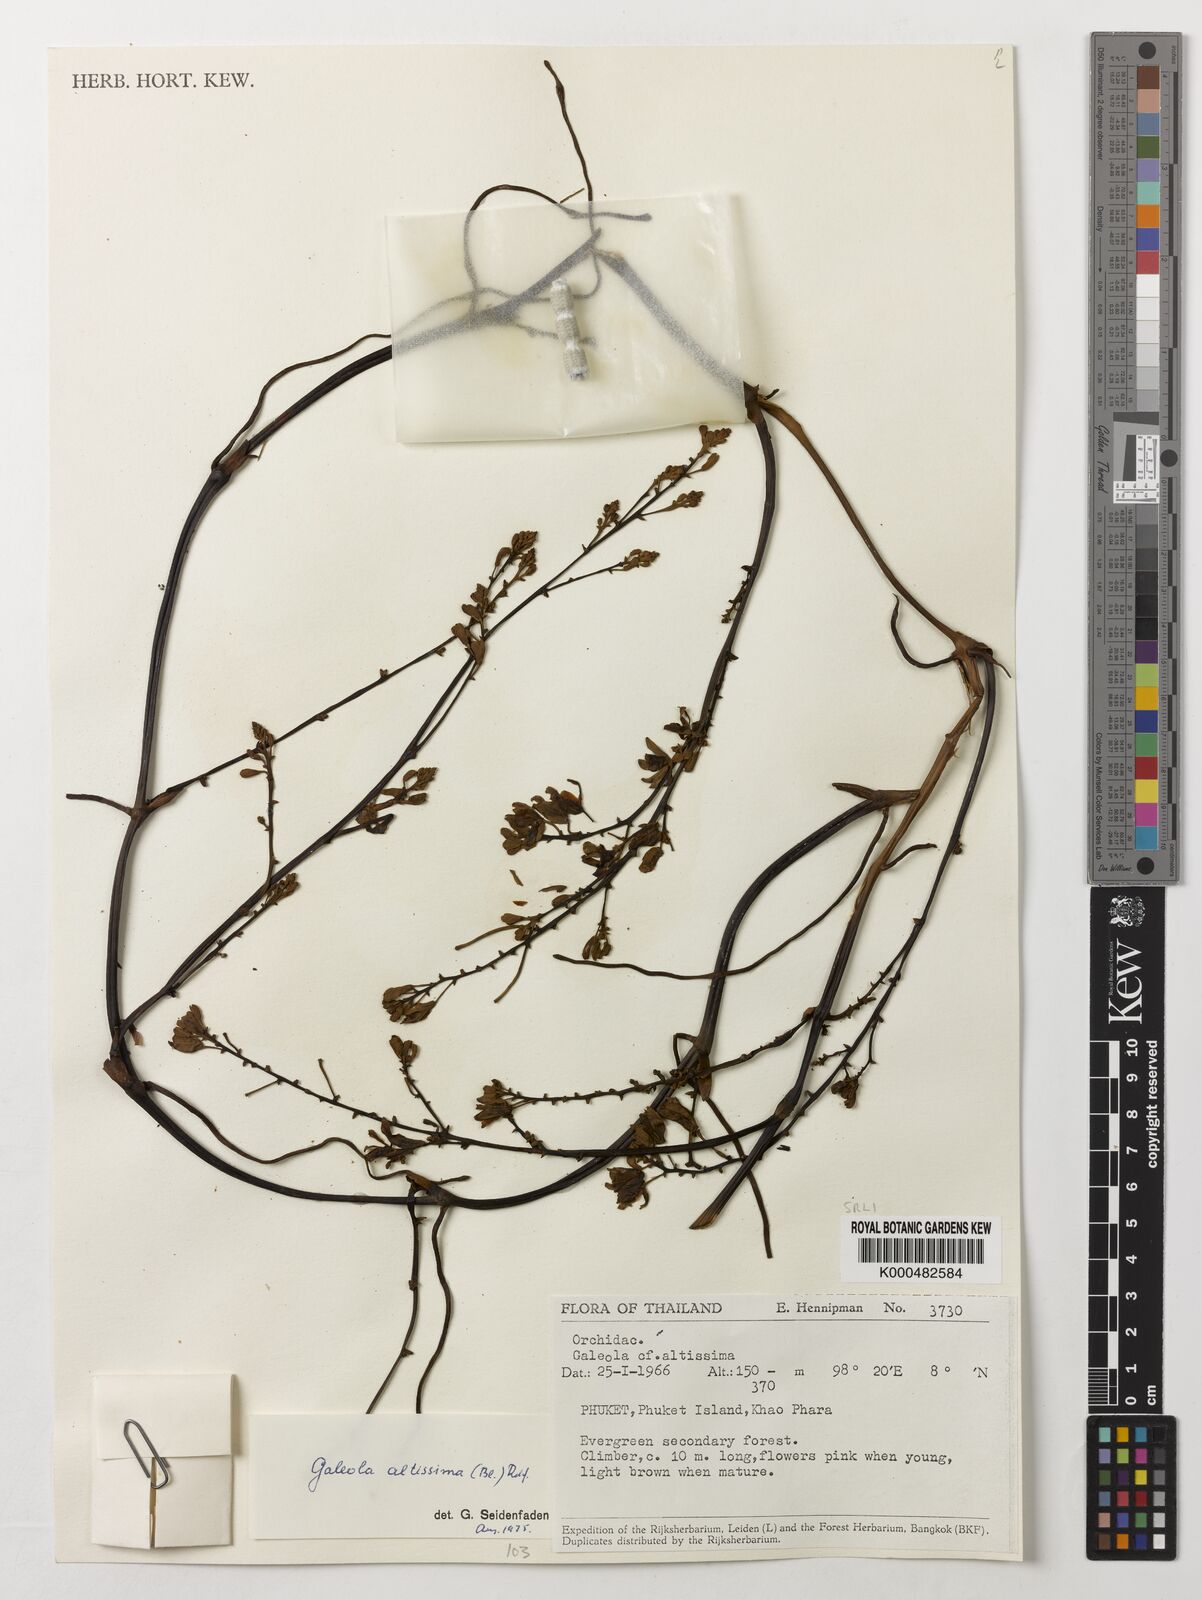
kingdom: Plantae
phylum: Tracheophyta
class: Liliopsida
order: Asparagales
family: Orchidaceae
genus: Erythrorchis
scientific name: Erythrorchis altissima
